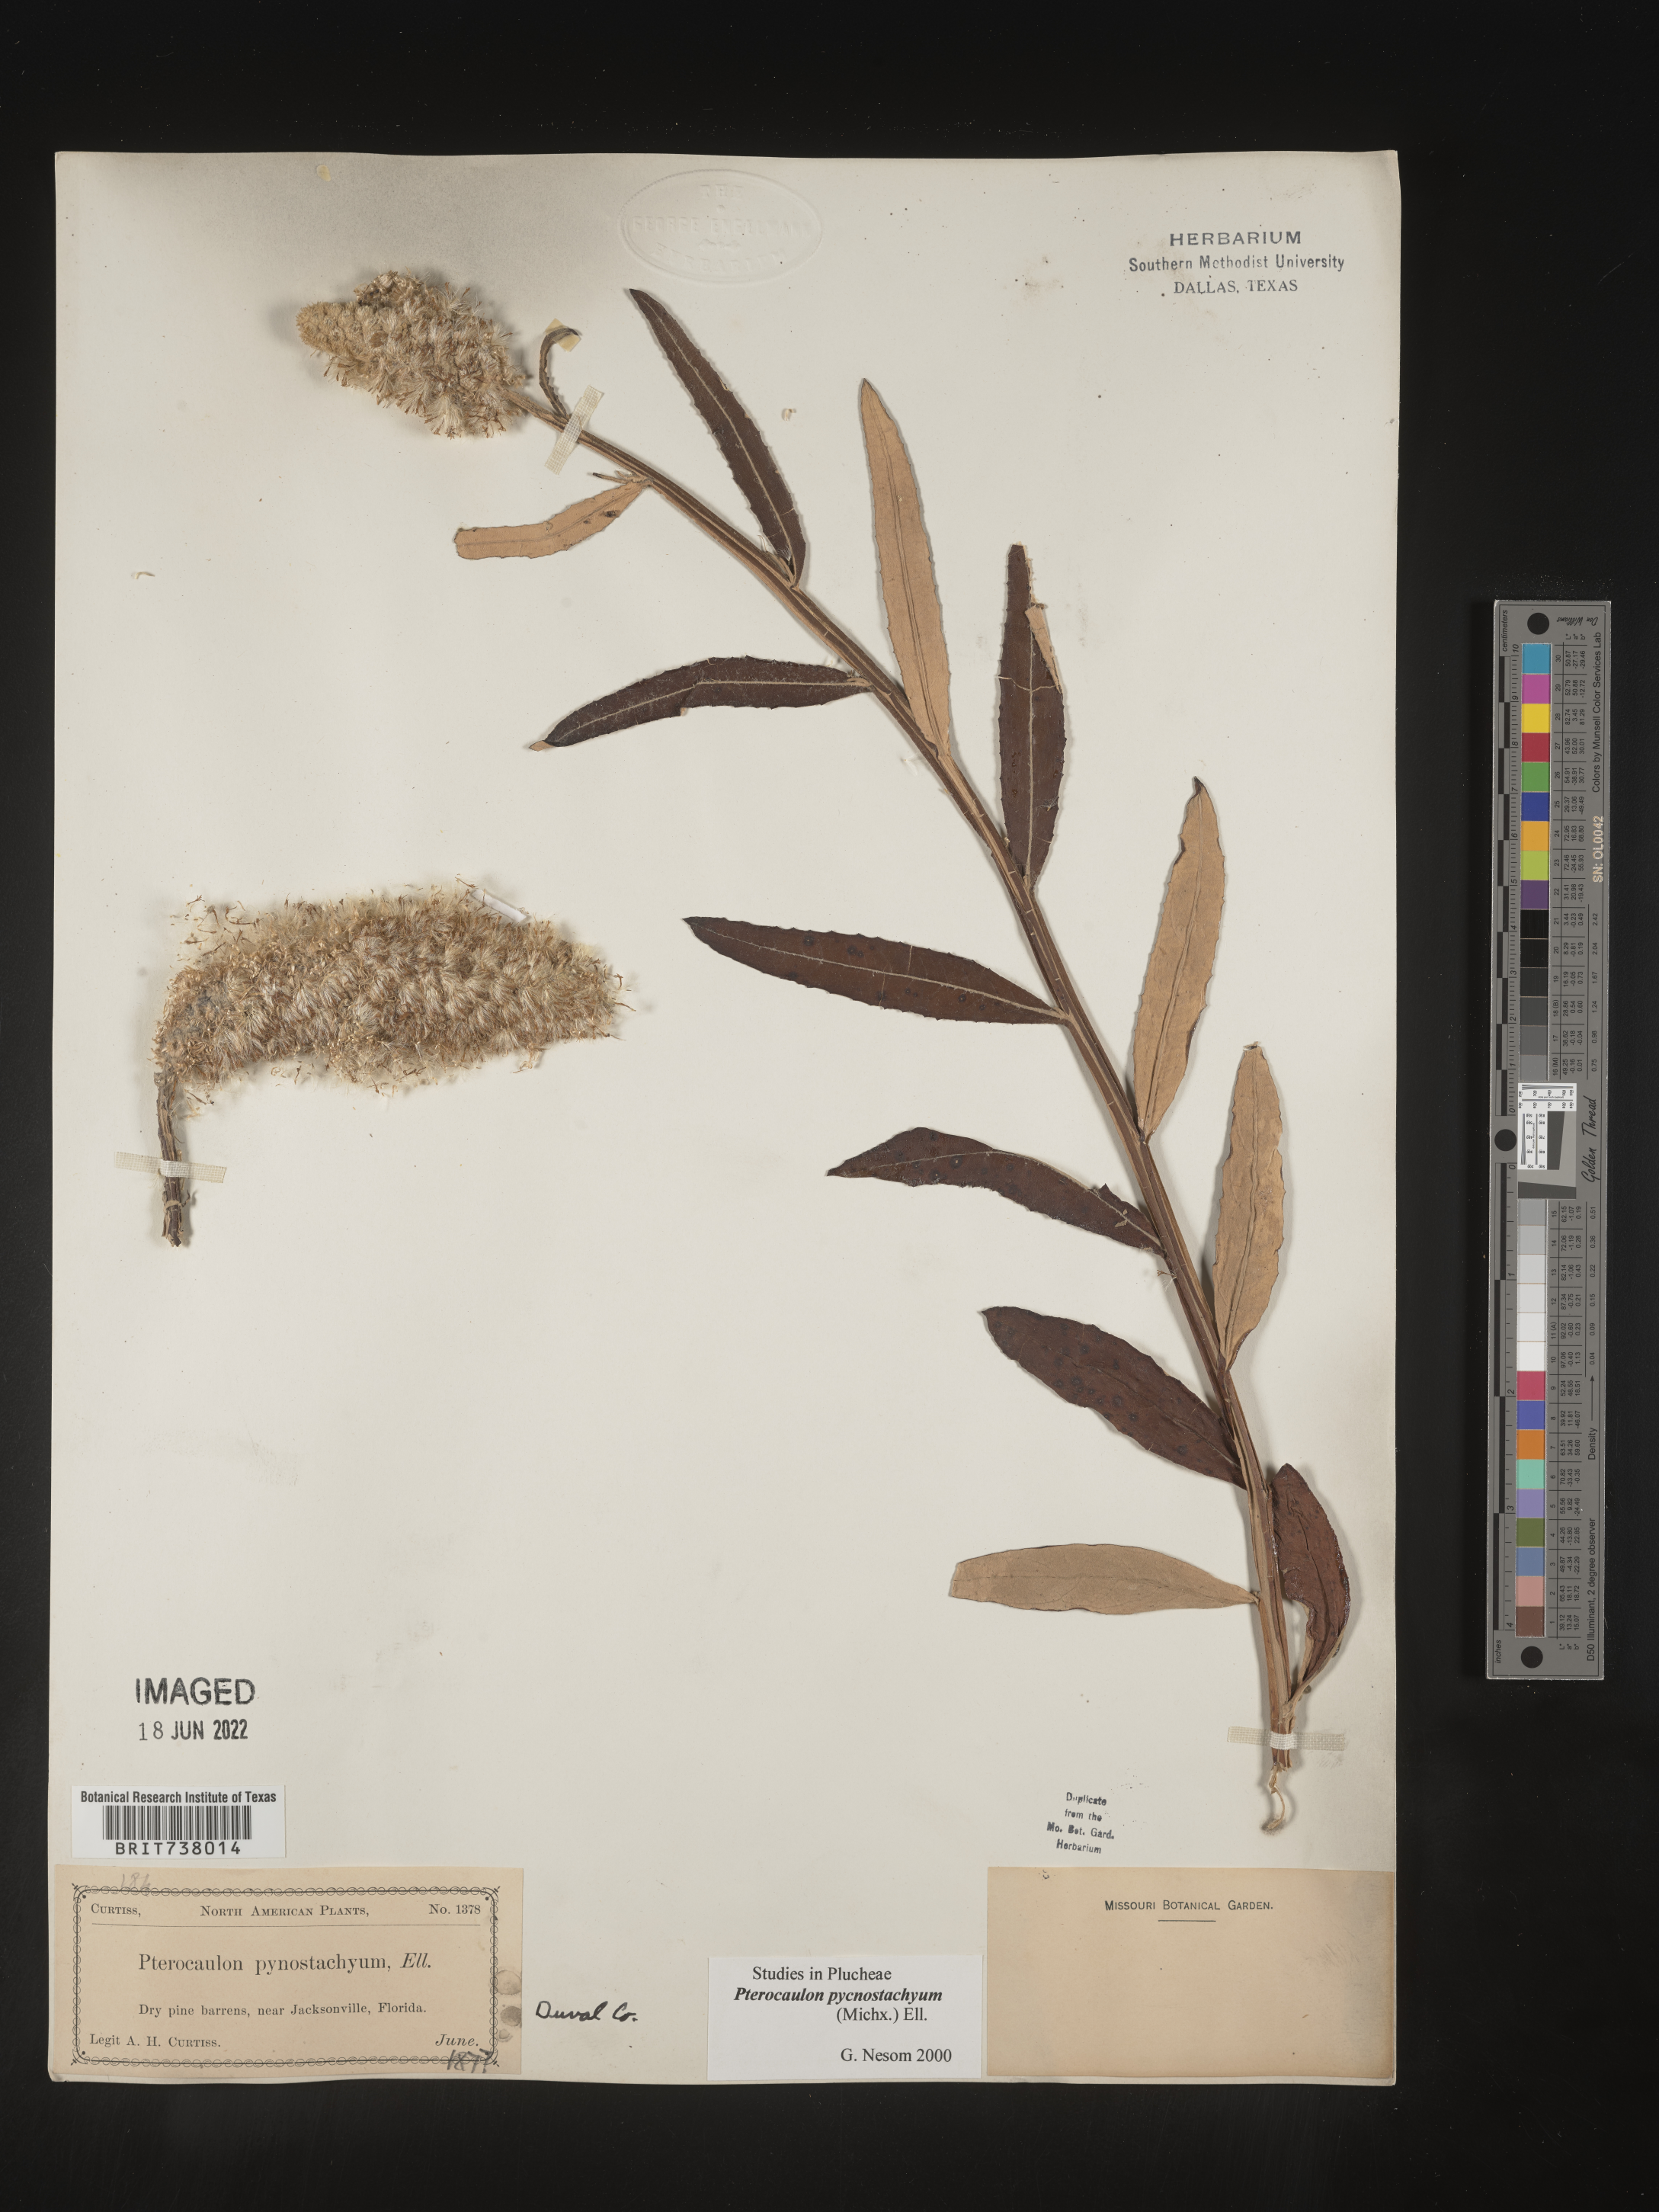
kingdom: Plantae
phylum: Tracheophyta
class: Magnoliopsida
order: Asterales
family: Asteraceae
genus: Pterocaulon
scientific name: Pterocaulon pycnostachyum
